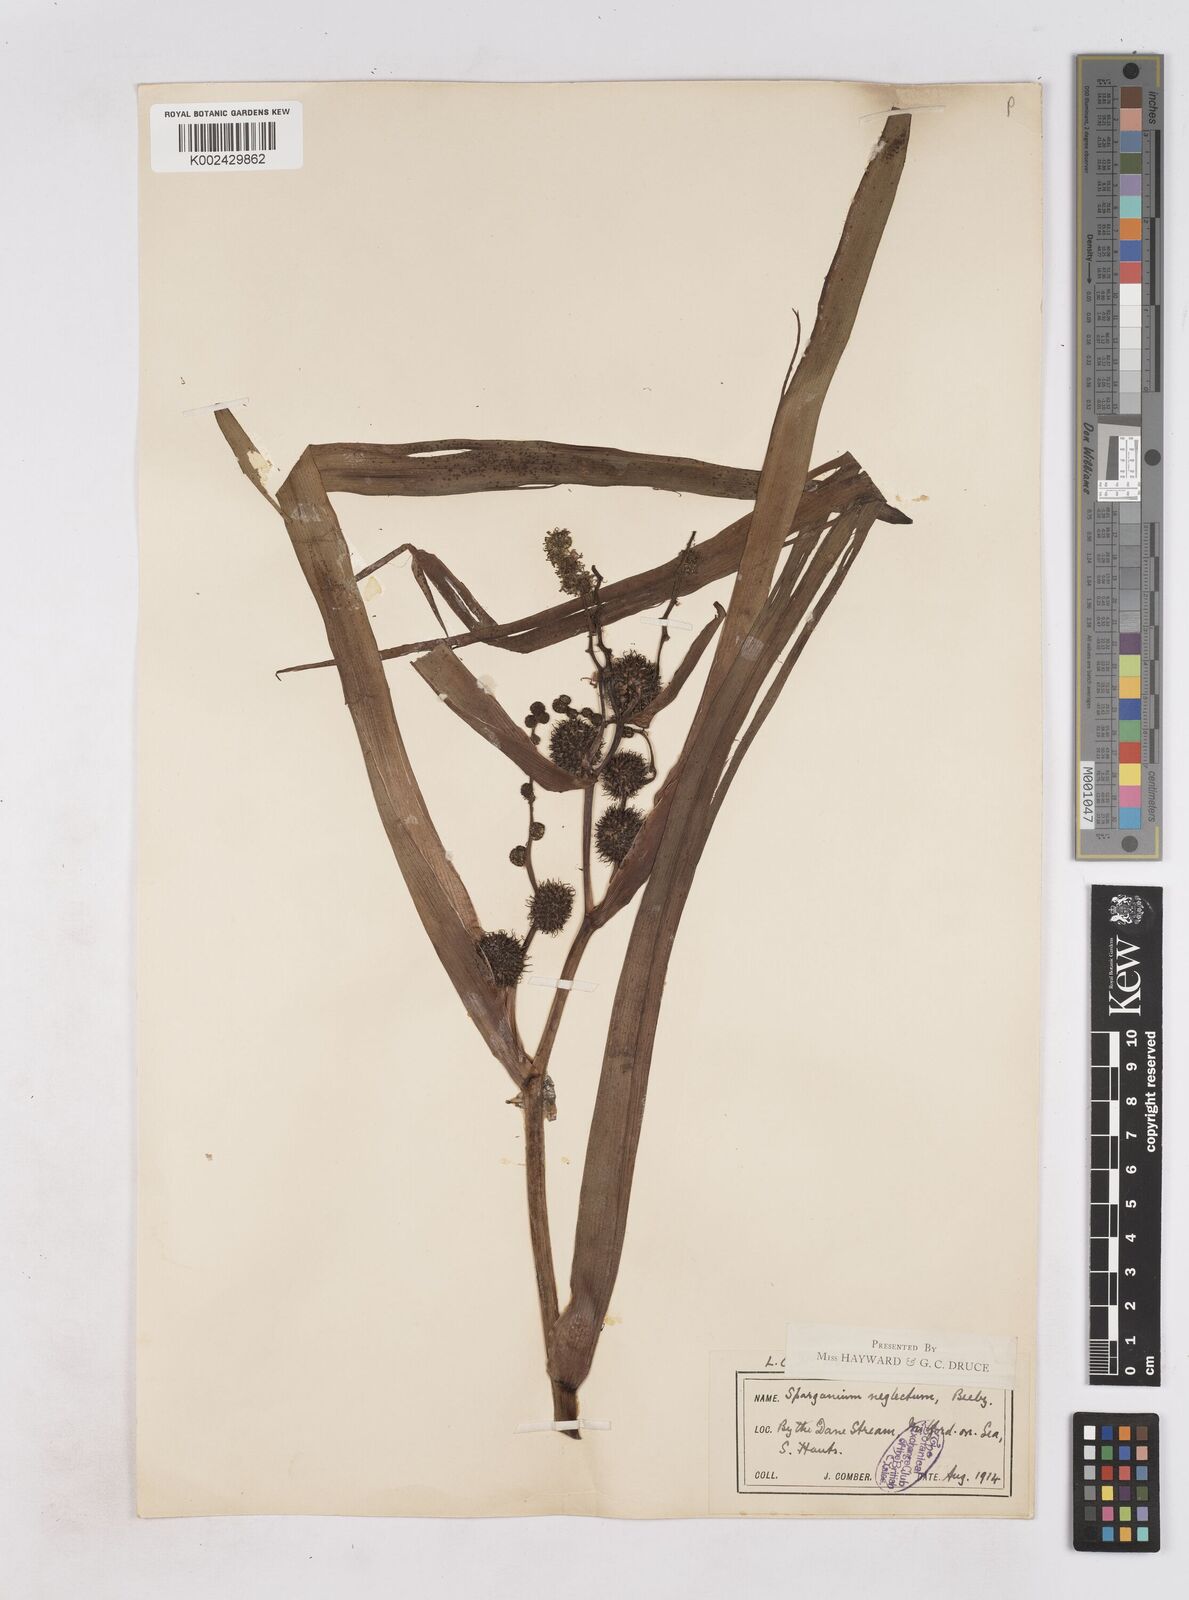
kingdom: Plantae
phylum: Tracheophyta
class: Liliopsida
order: Poales
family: Typhaceae
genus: Sparganium
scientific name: Sparganium erectum
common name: Branched bur-reed
